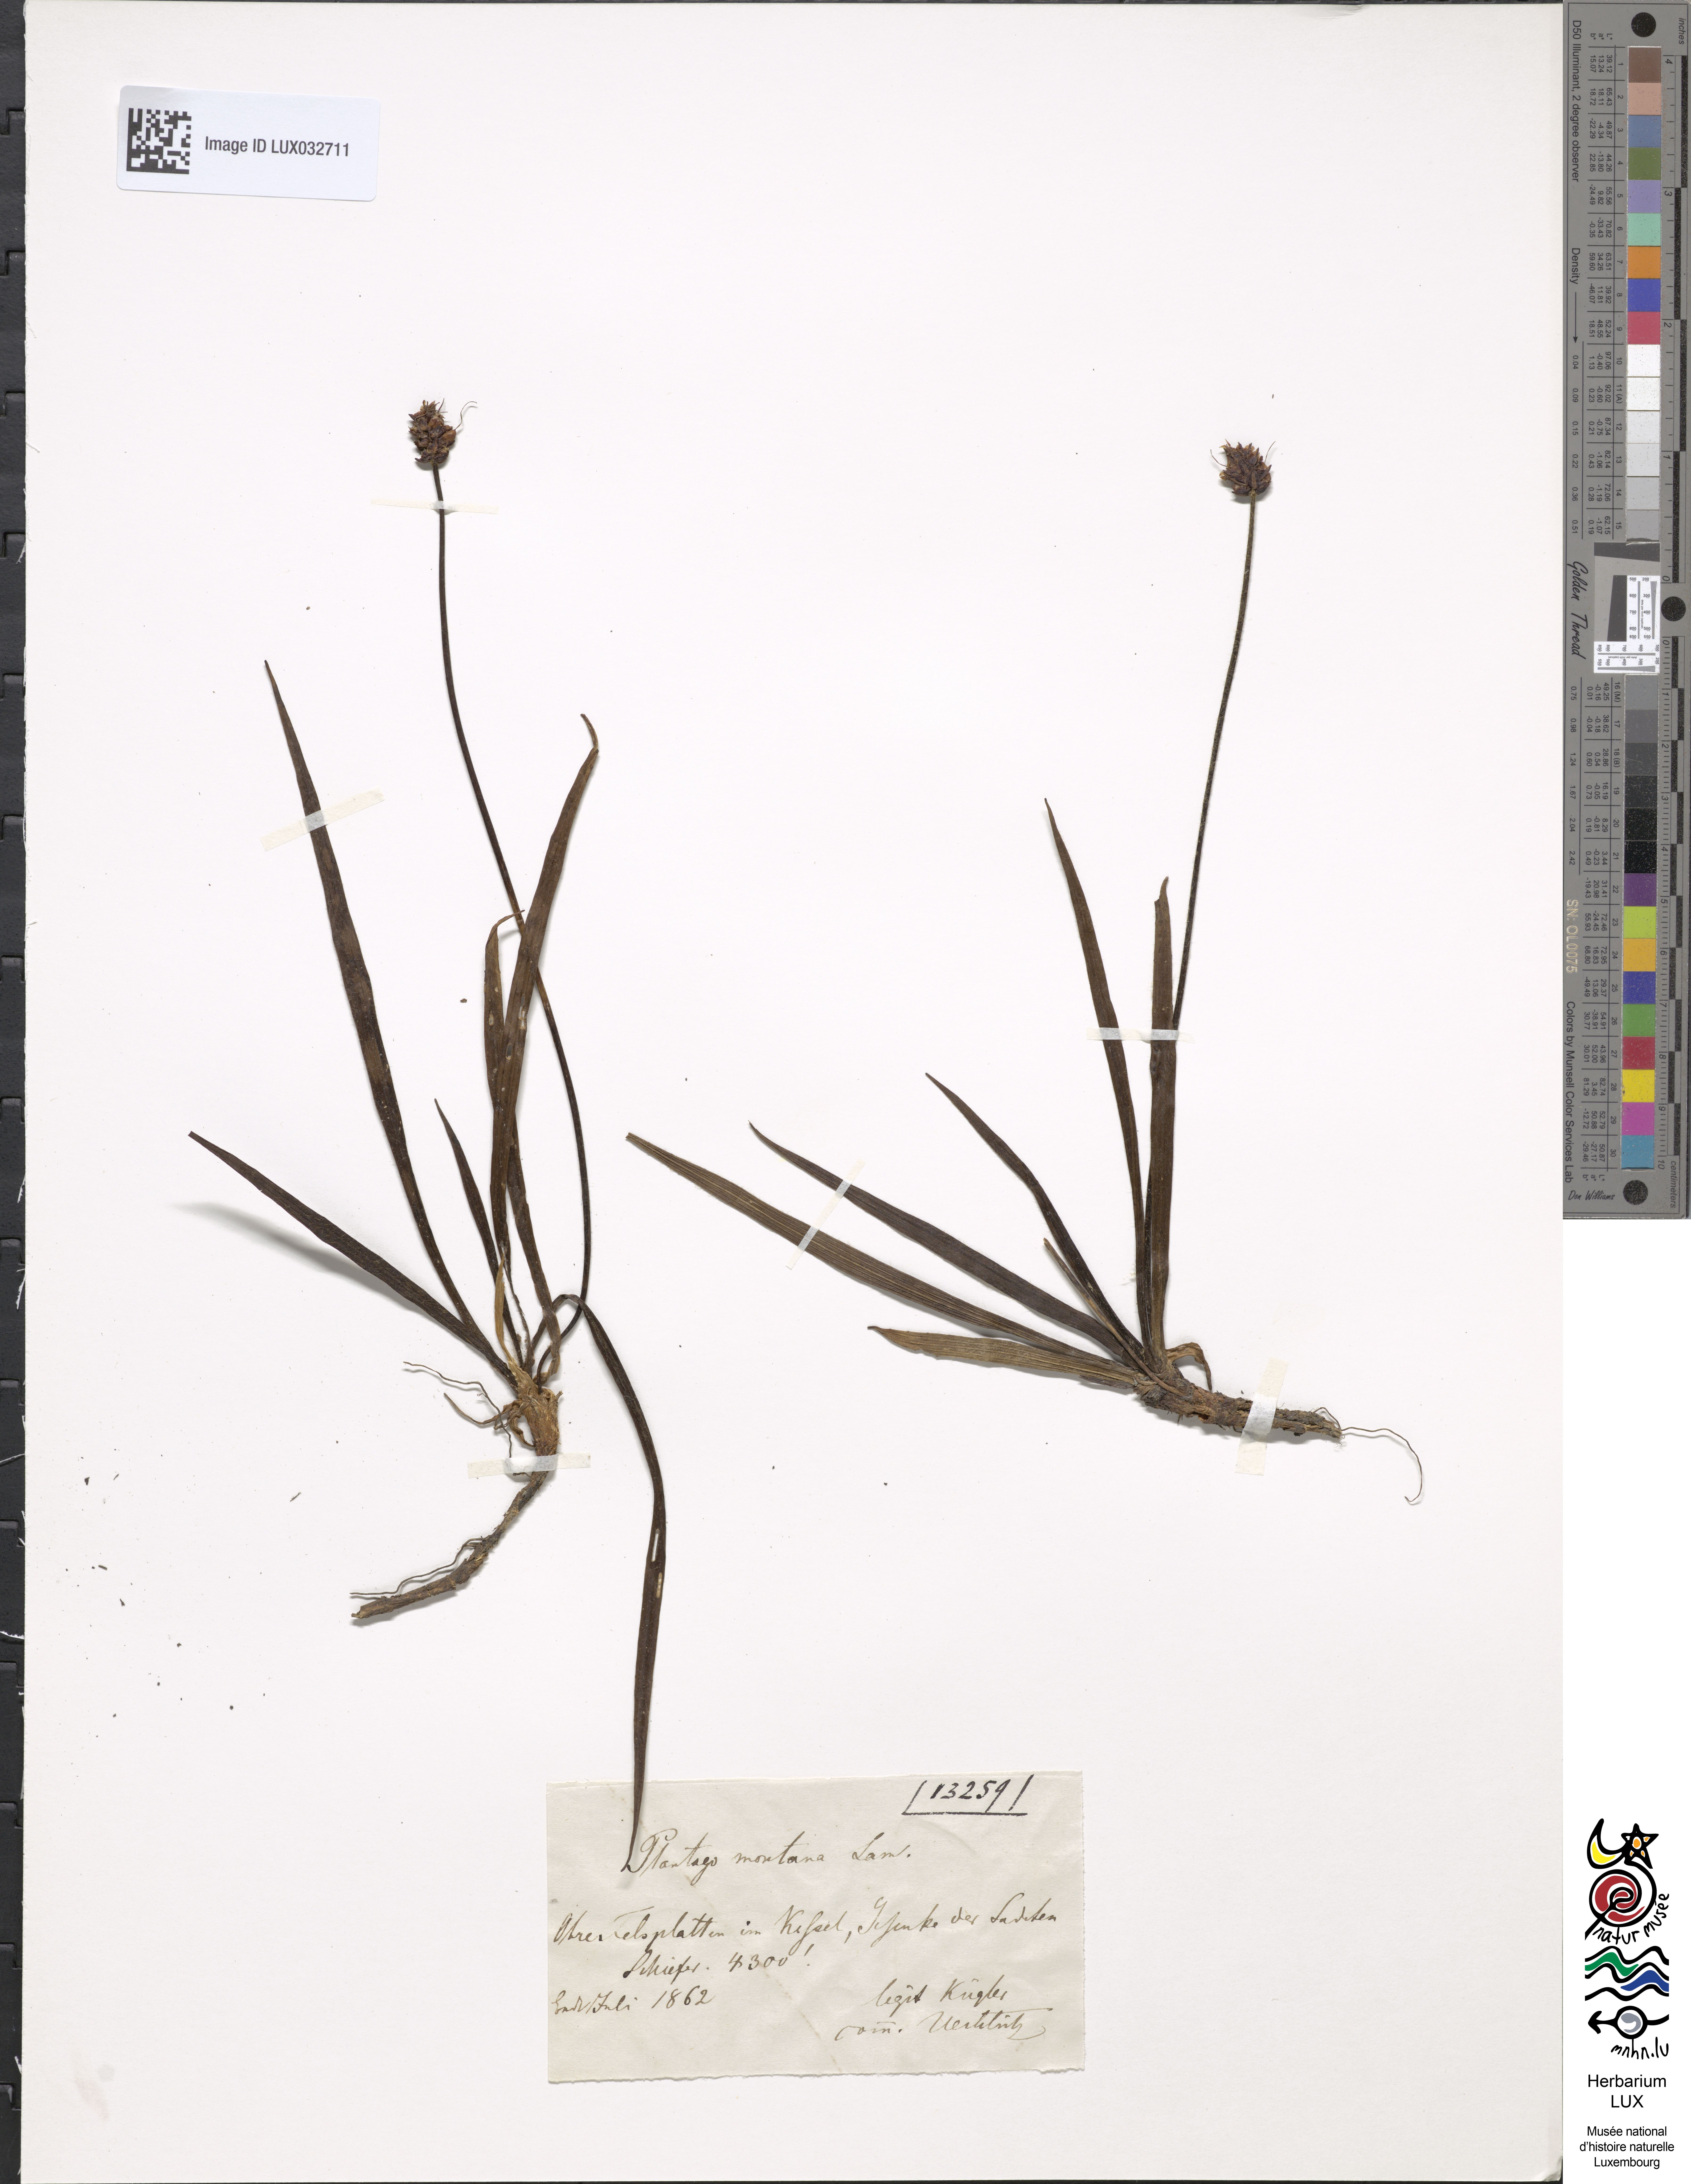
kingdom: Plantae
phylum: Tracheophyta
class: Magnoliopsida
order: Lamiales
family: Plantaginaceae
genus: Plantago
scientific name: Plantago atrata
